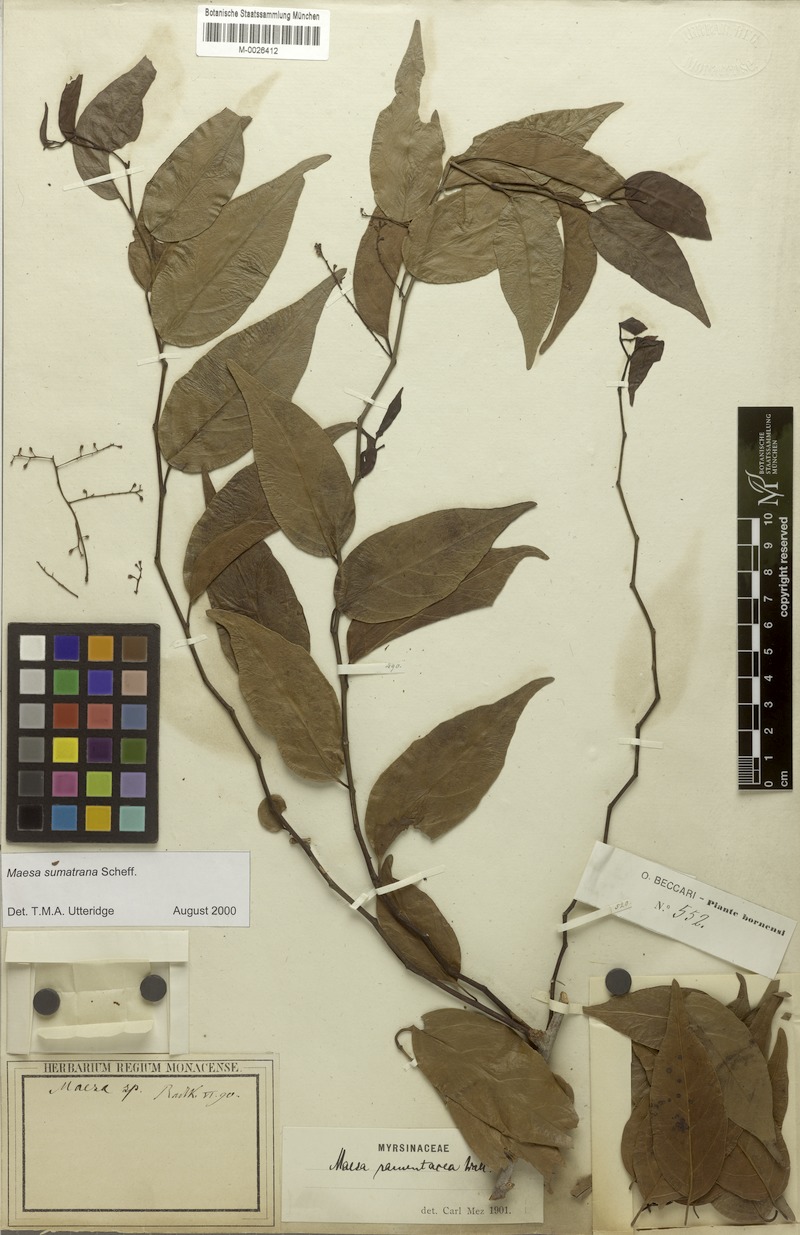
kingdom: Plantae
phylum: Tracheophyta
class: Magnoliopsida
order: Ericales
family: Primulaceae
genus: Maesa
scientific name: Maesa sumatrana
